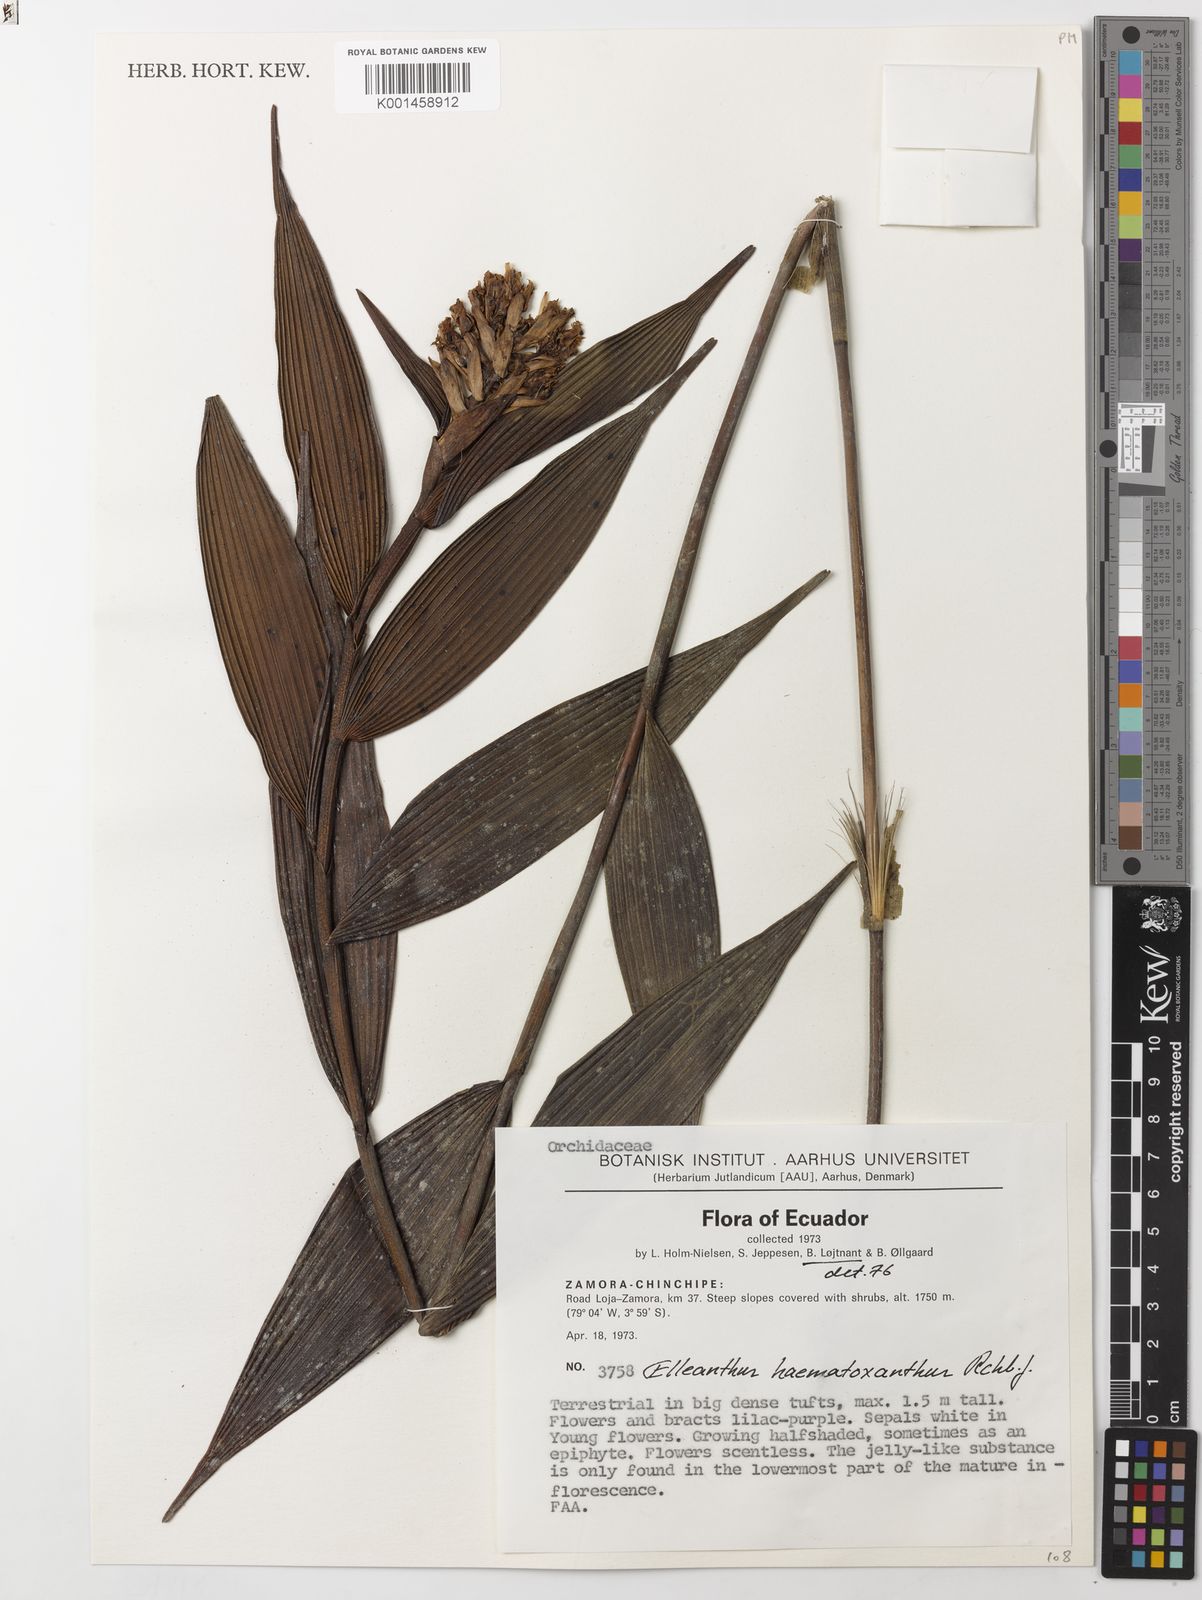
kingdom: Plantae
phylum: Tracheophyta
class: Liliopsida
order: Asparagales
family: Orchidaceae
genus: Elleanthus
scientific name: Elleanthus
